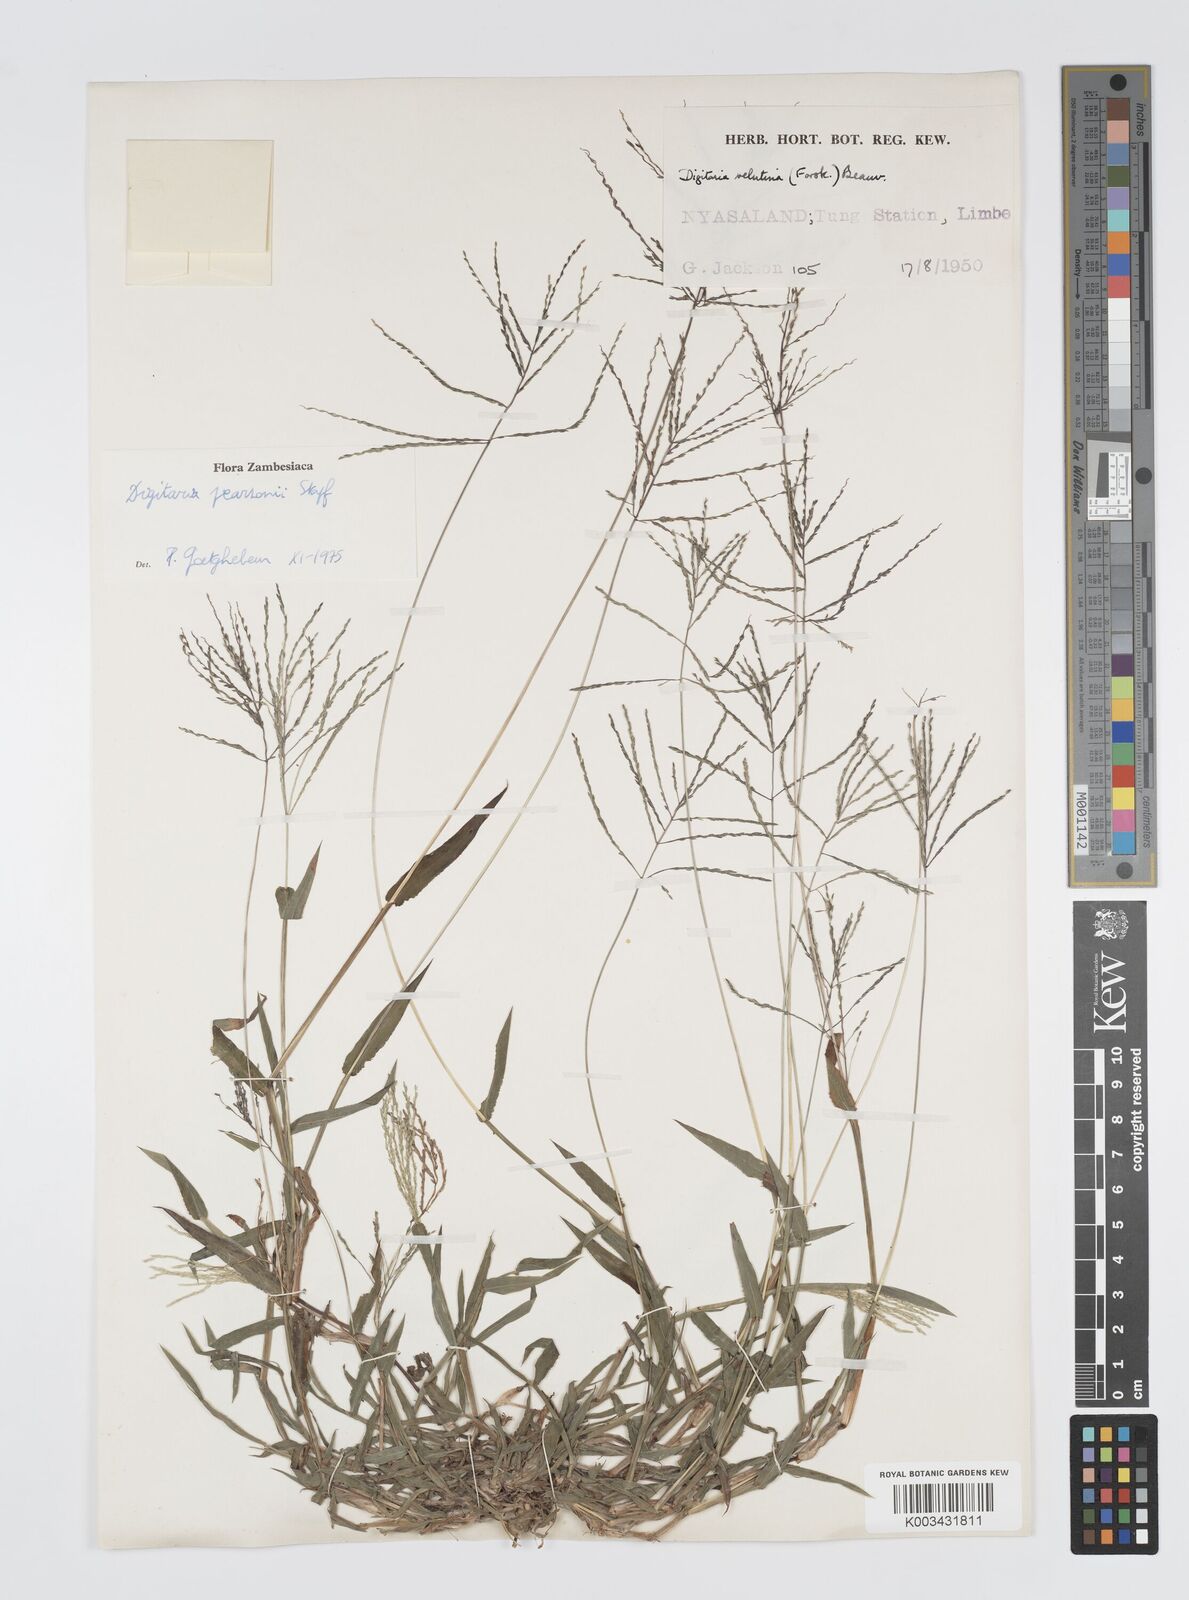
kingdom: Plantae
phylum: Tracheophyta
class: Liliopsida
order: Poales
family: Poaceae
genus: Digitaria
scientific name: Digitaria pearsonii
